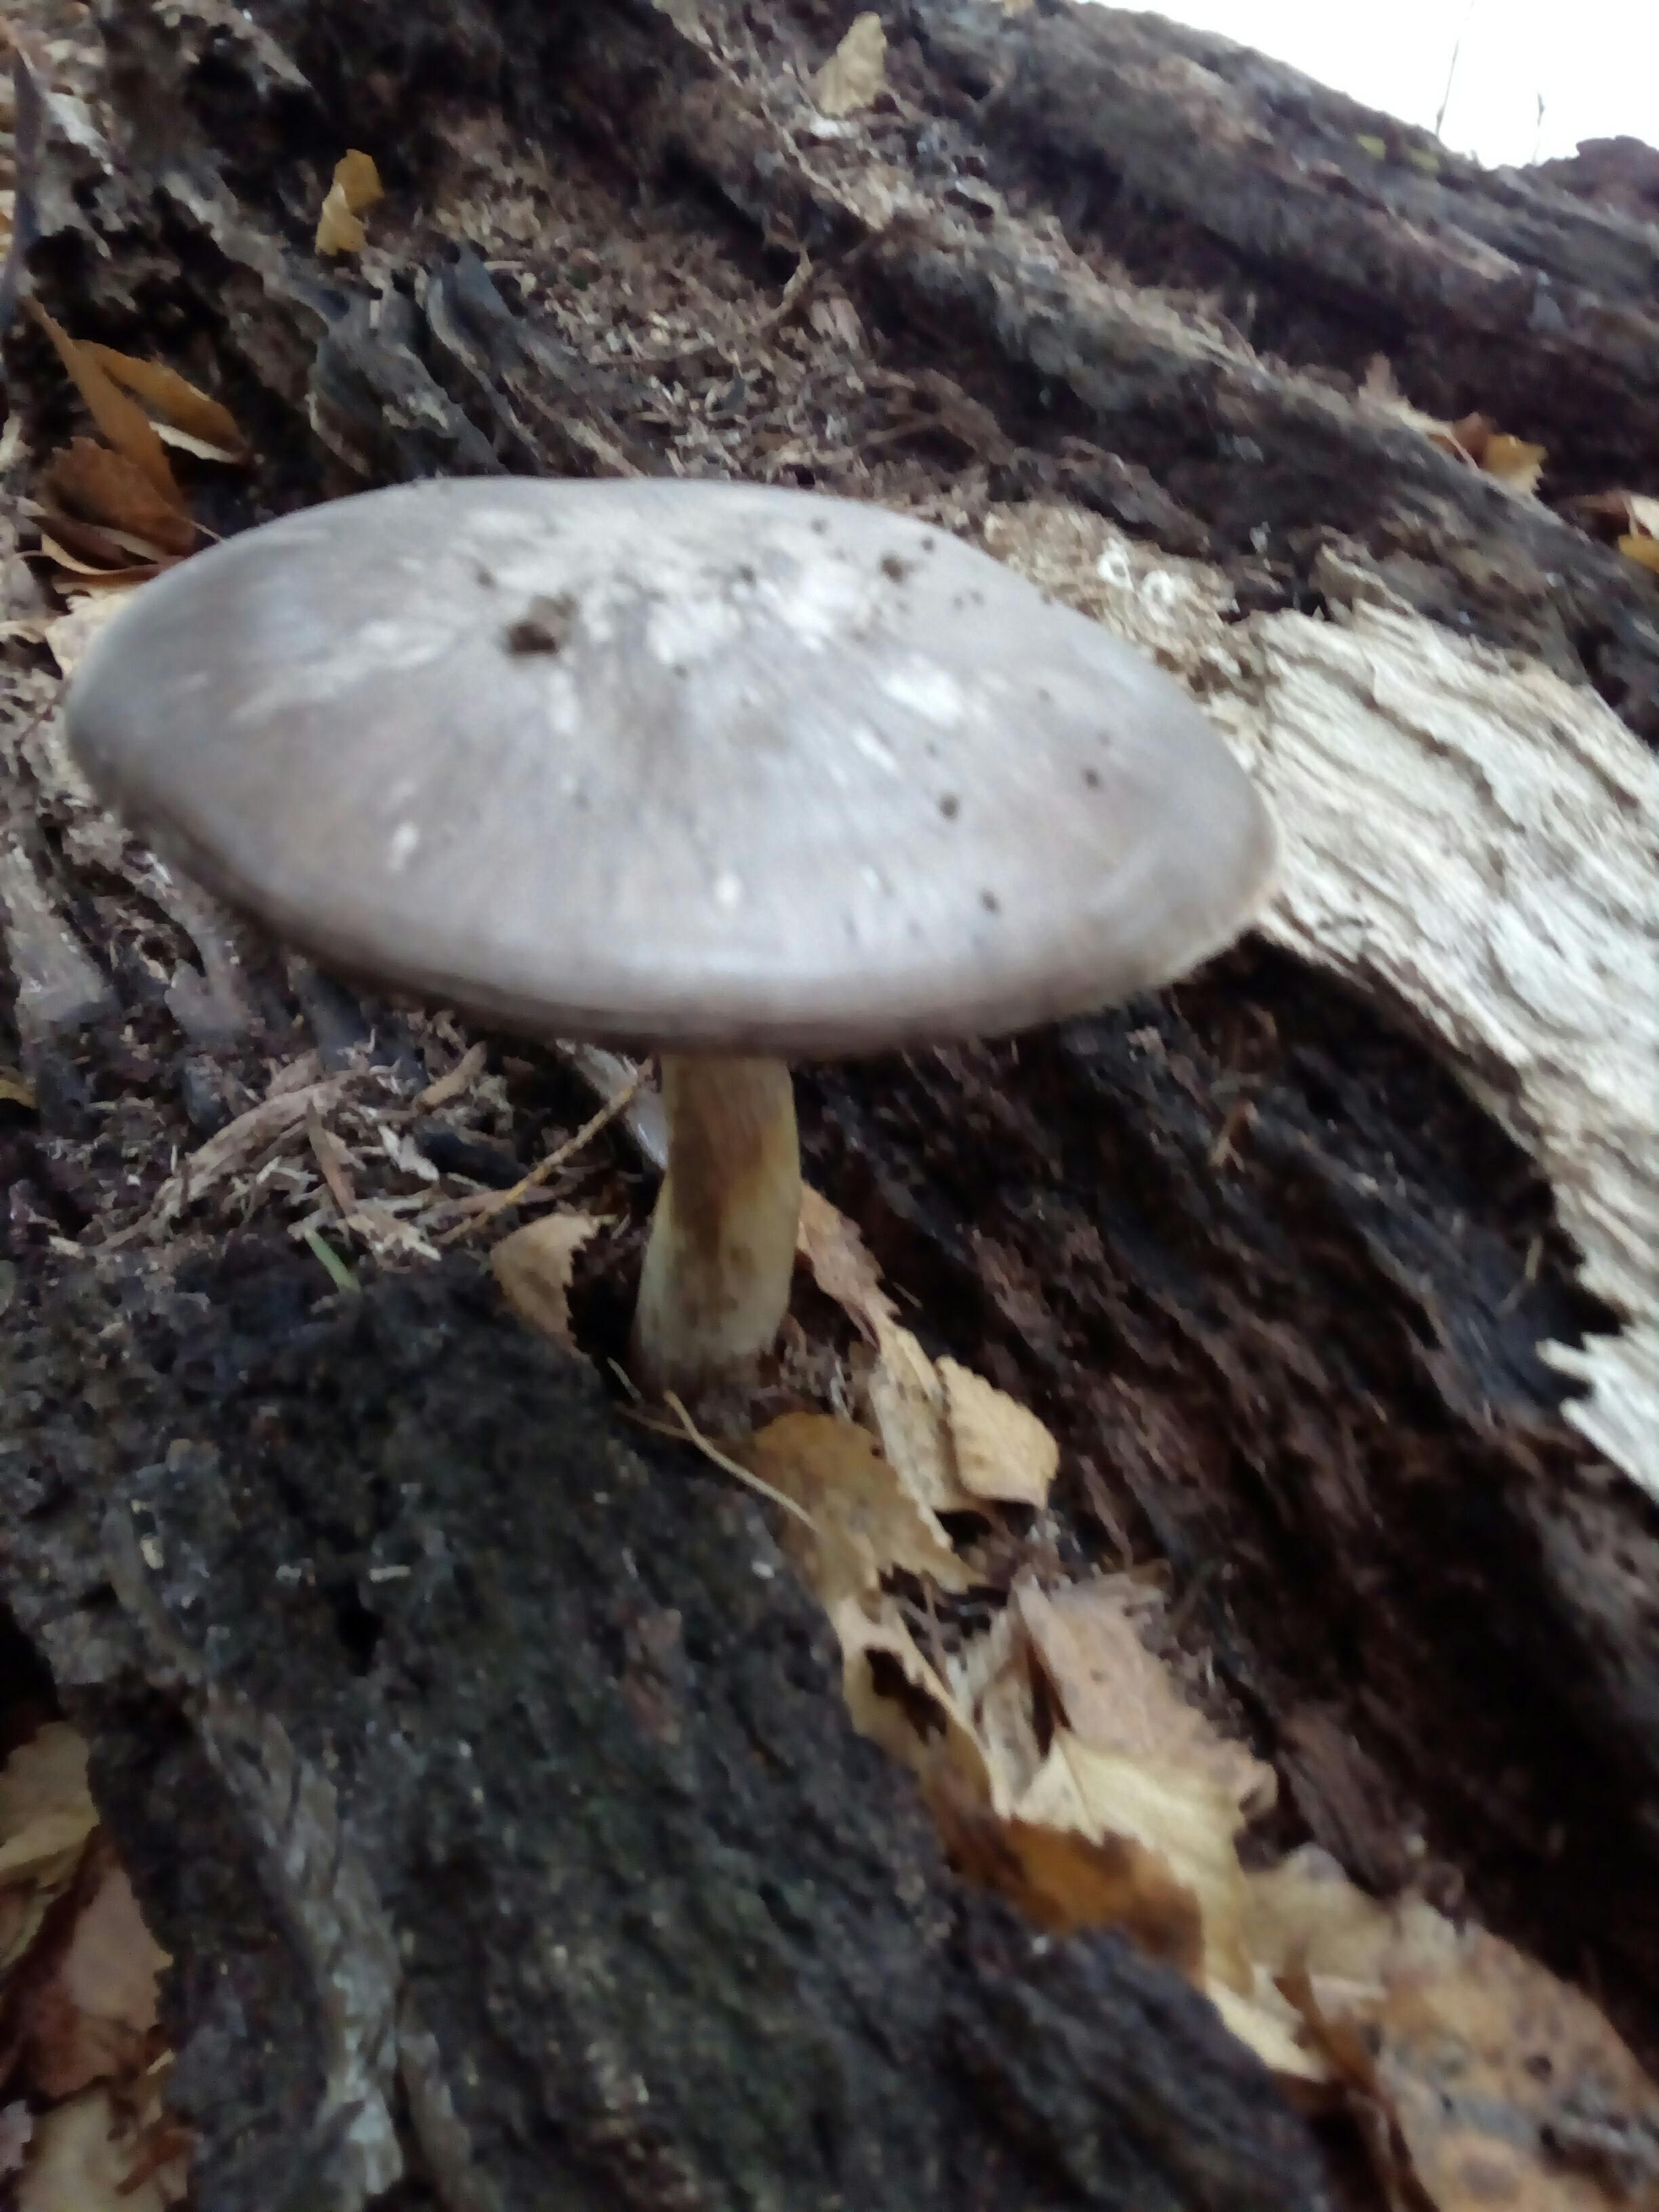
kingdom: Fungi
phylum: Basidiomycota
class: Agaricomycetes
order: Agaricales
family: Pluteaceae
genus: Pluteus
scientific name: Pluteus cervinus
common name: sodfarvet skærmhat
